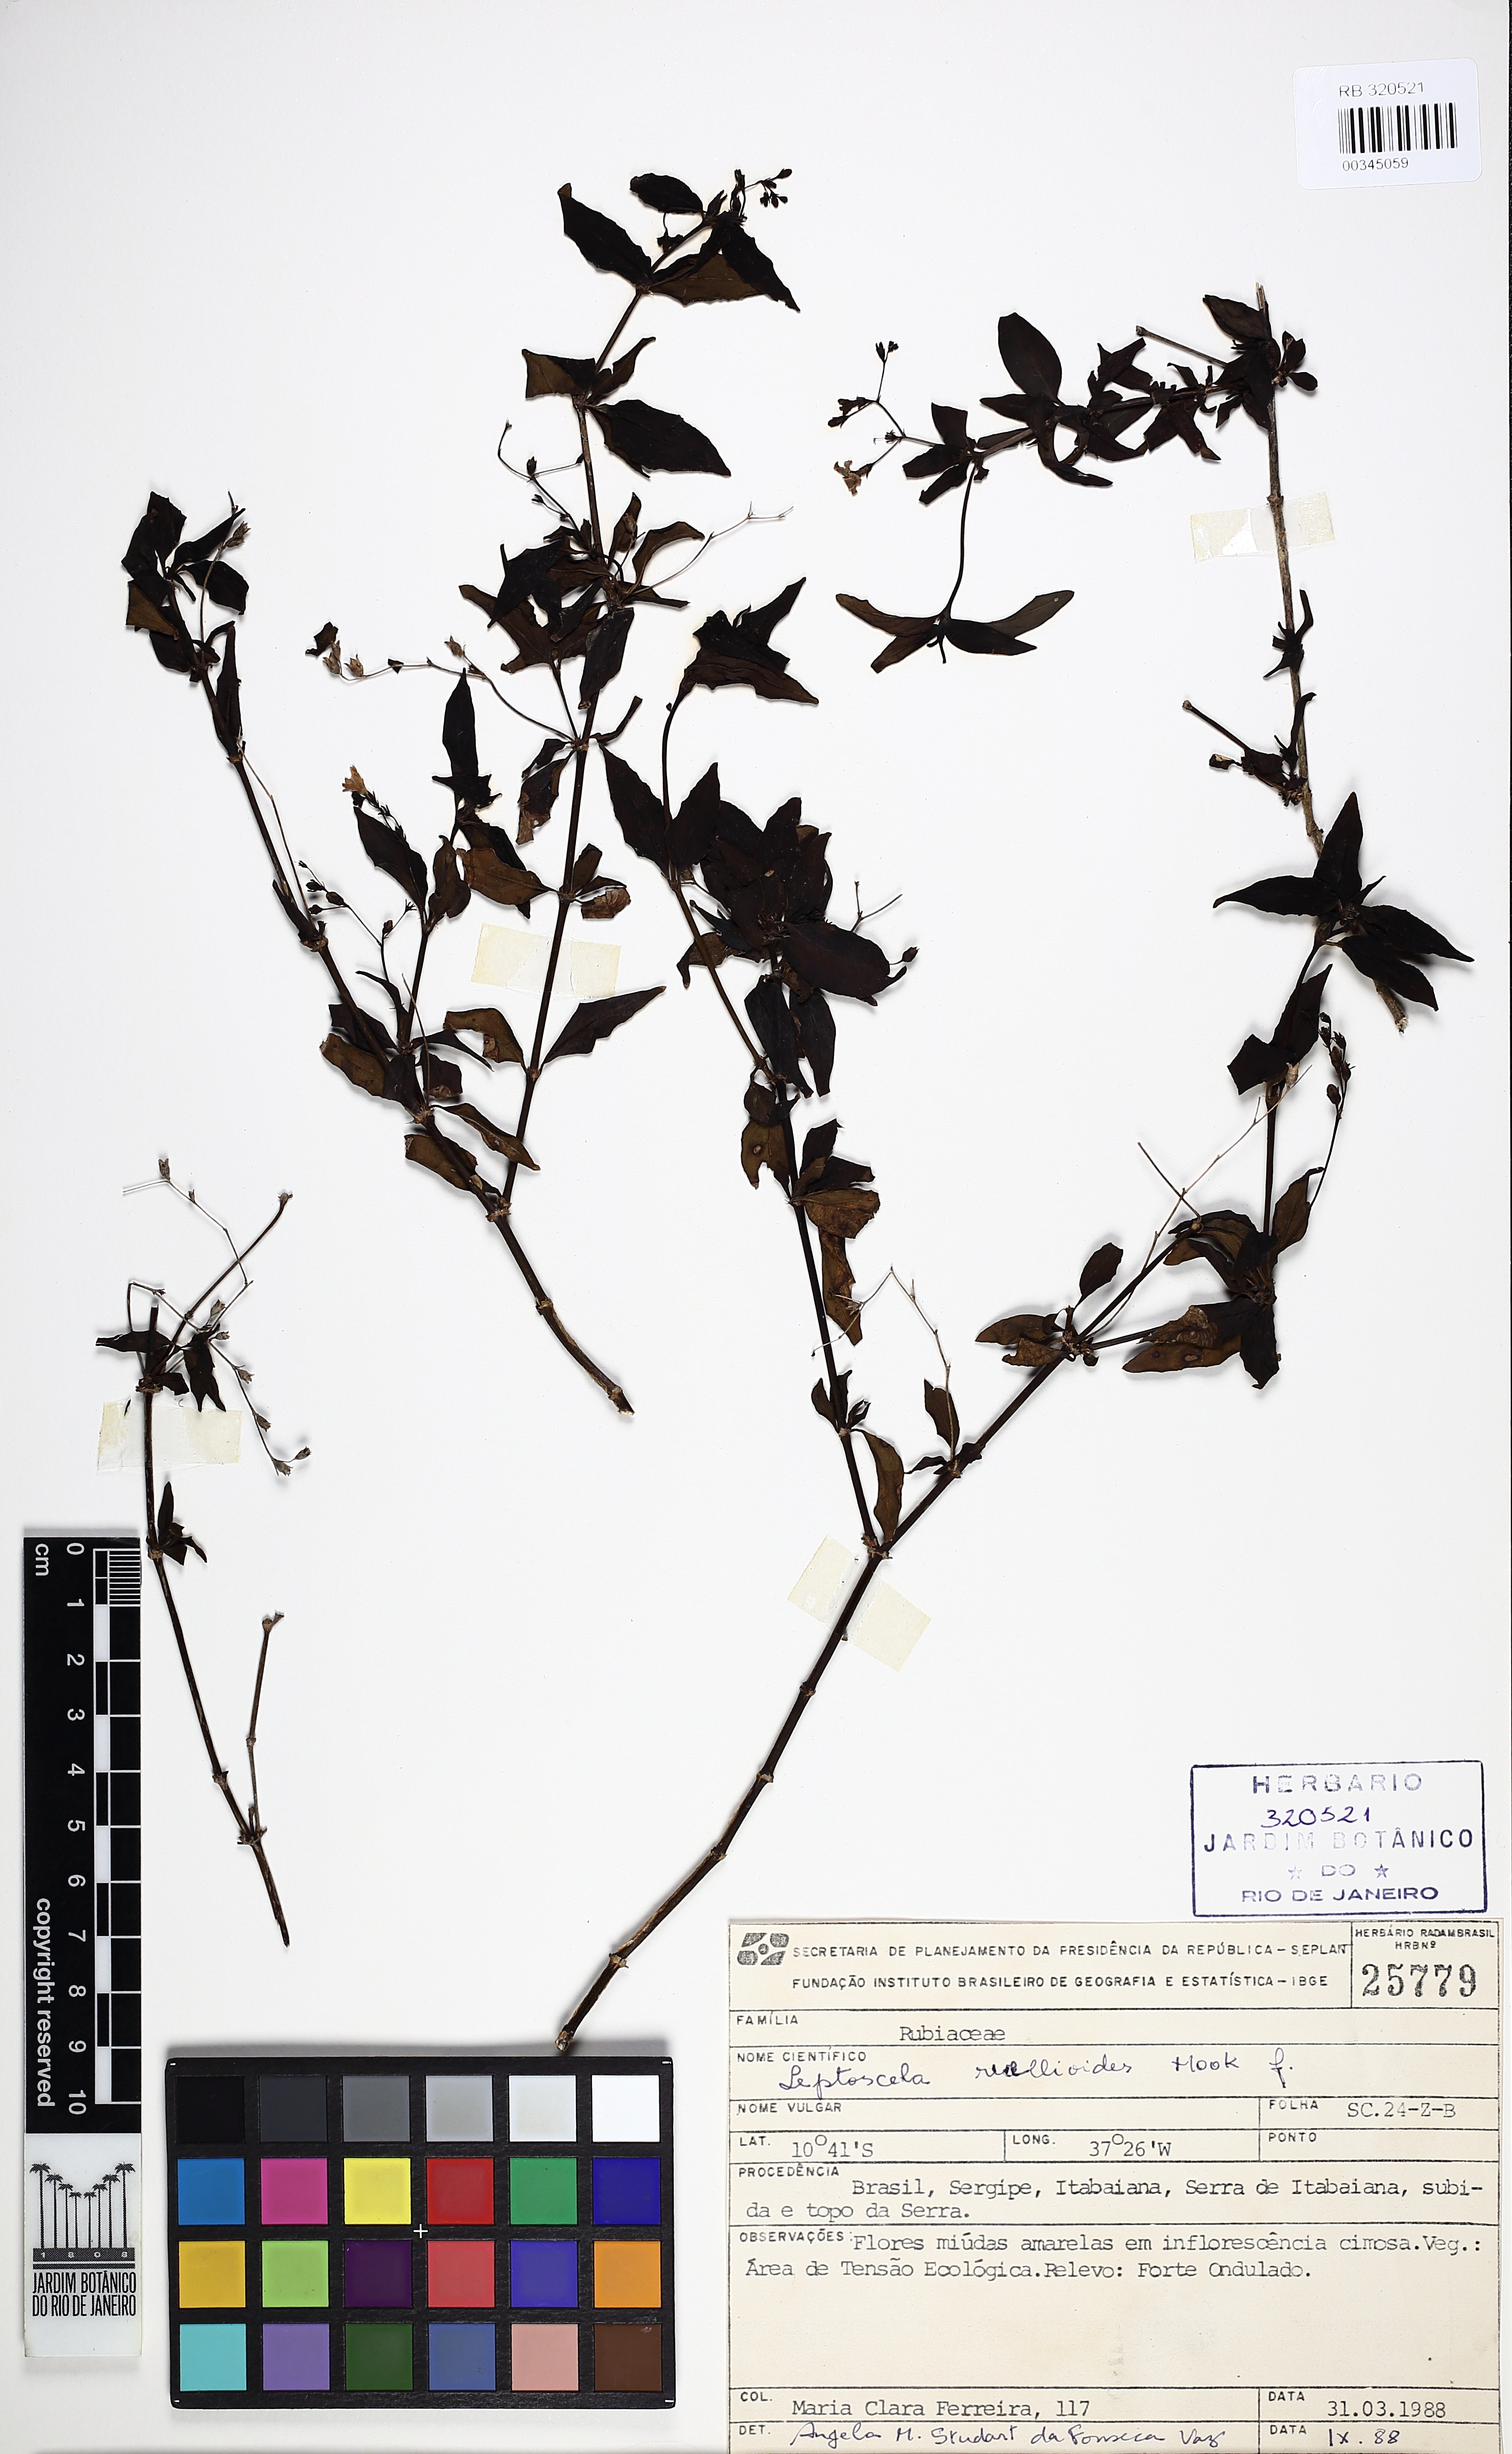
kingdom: Plantae
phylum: Tracheophyta
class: Magnoliopsida
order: Gentianales
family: Rubiaceae
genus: Leptoscela
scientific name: Leptoscela ruellioides
